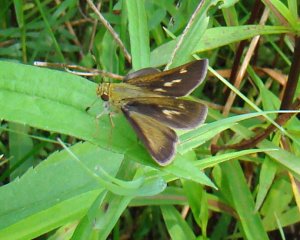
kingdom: Animalia
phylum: Arthropoda
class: Insecta
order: Lepidoptera
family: Hesperiidae
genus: Vernia
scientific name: Vernia verna
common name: Little Glassywing
